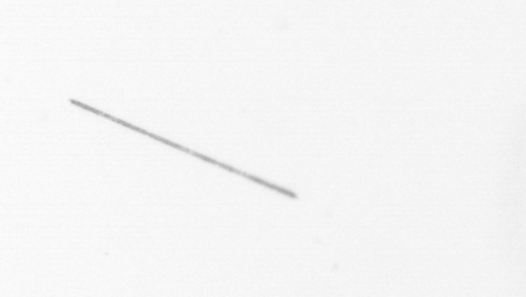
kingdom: Chromista
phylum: Ochrophyta
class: Bacillariophyceae
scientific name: Bacillariophyceae
